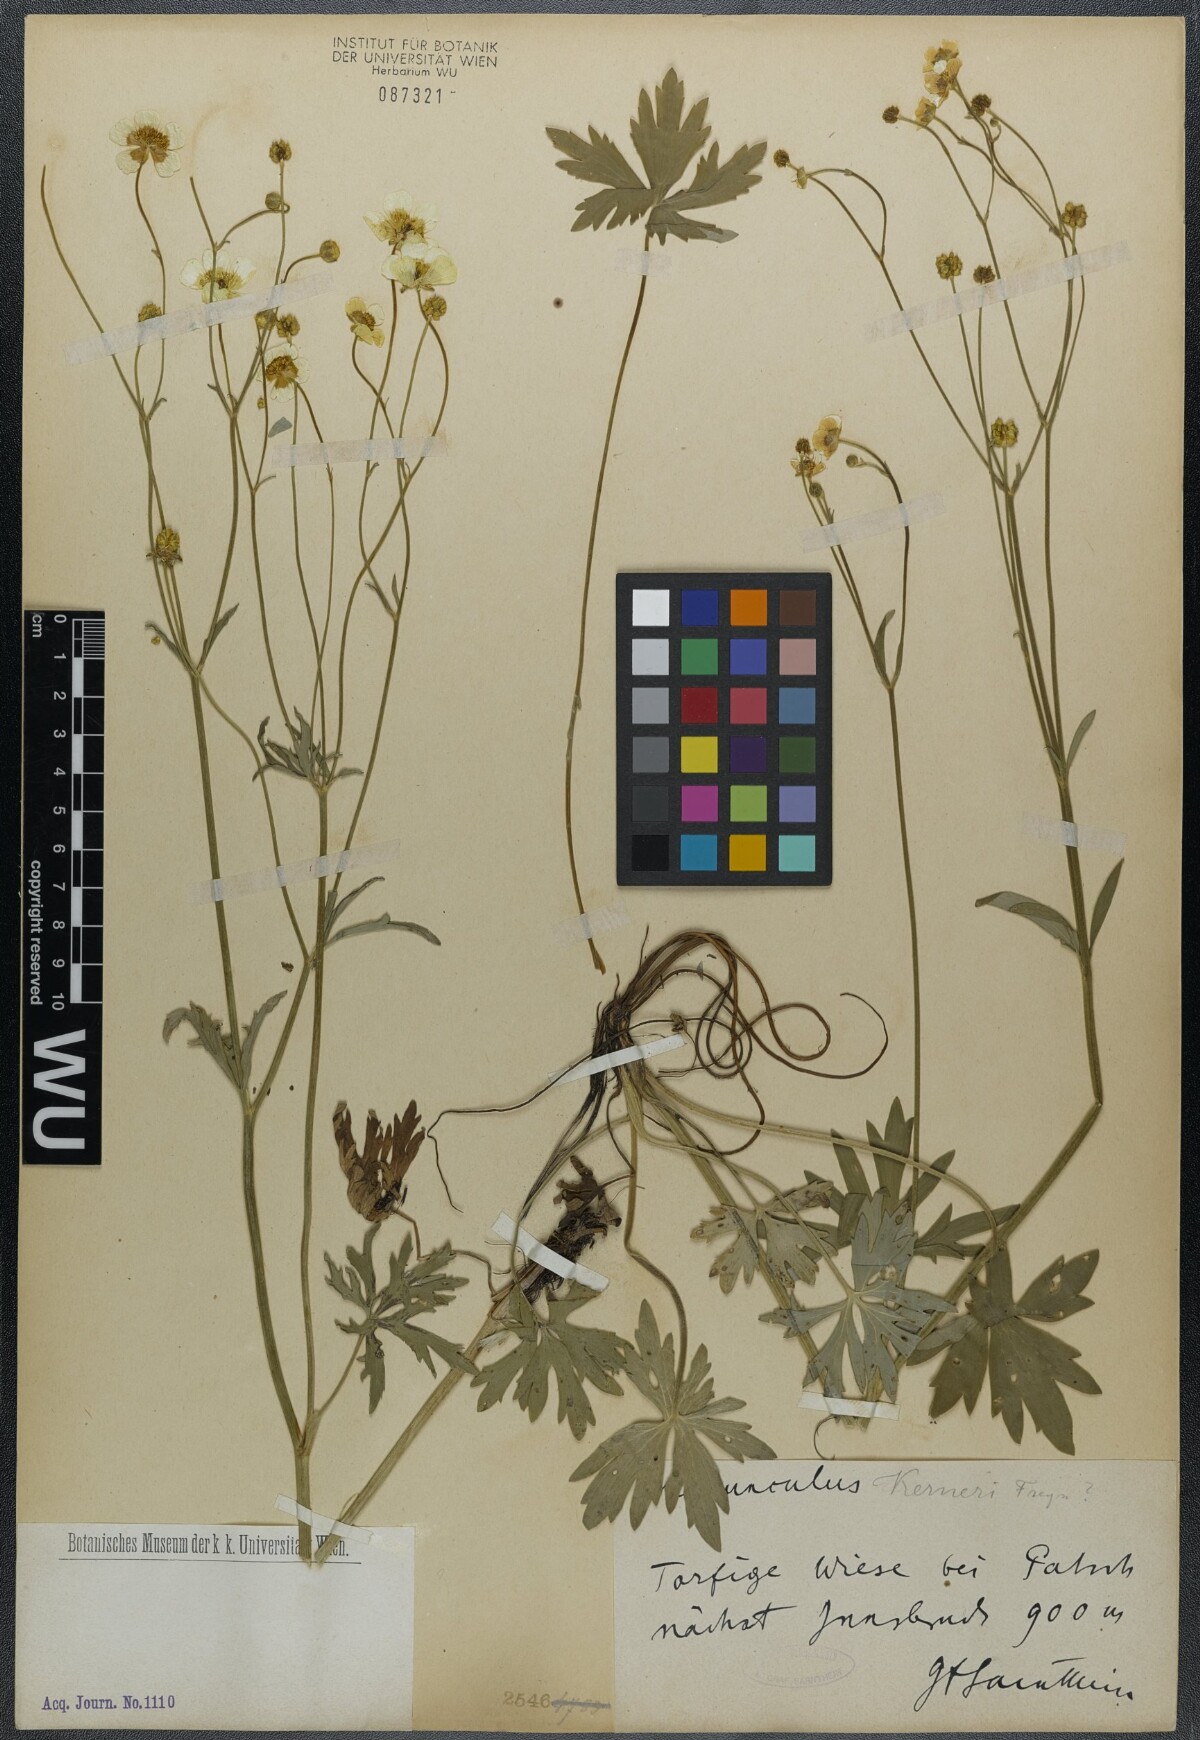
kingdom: Plantae
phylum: Tracheophyta
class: Magnoliopsida
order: Ranunculales
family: Ranunculaceae
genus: Ranunculus
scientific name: Ranunculus acris
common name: Meadow buttercup
